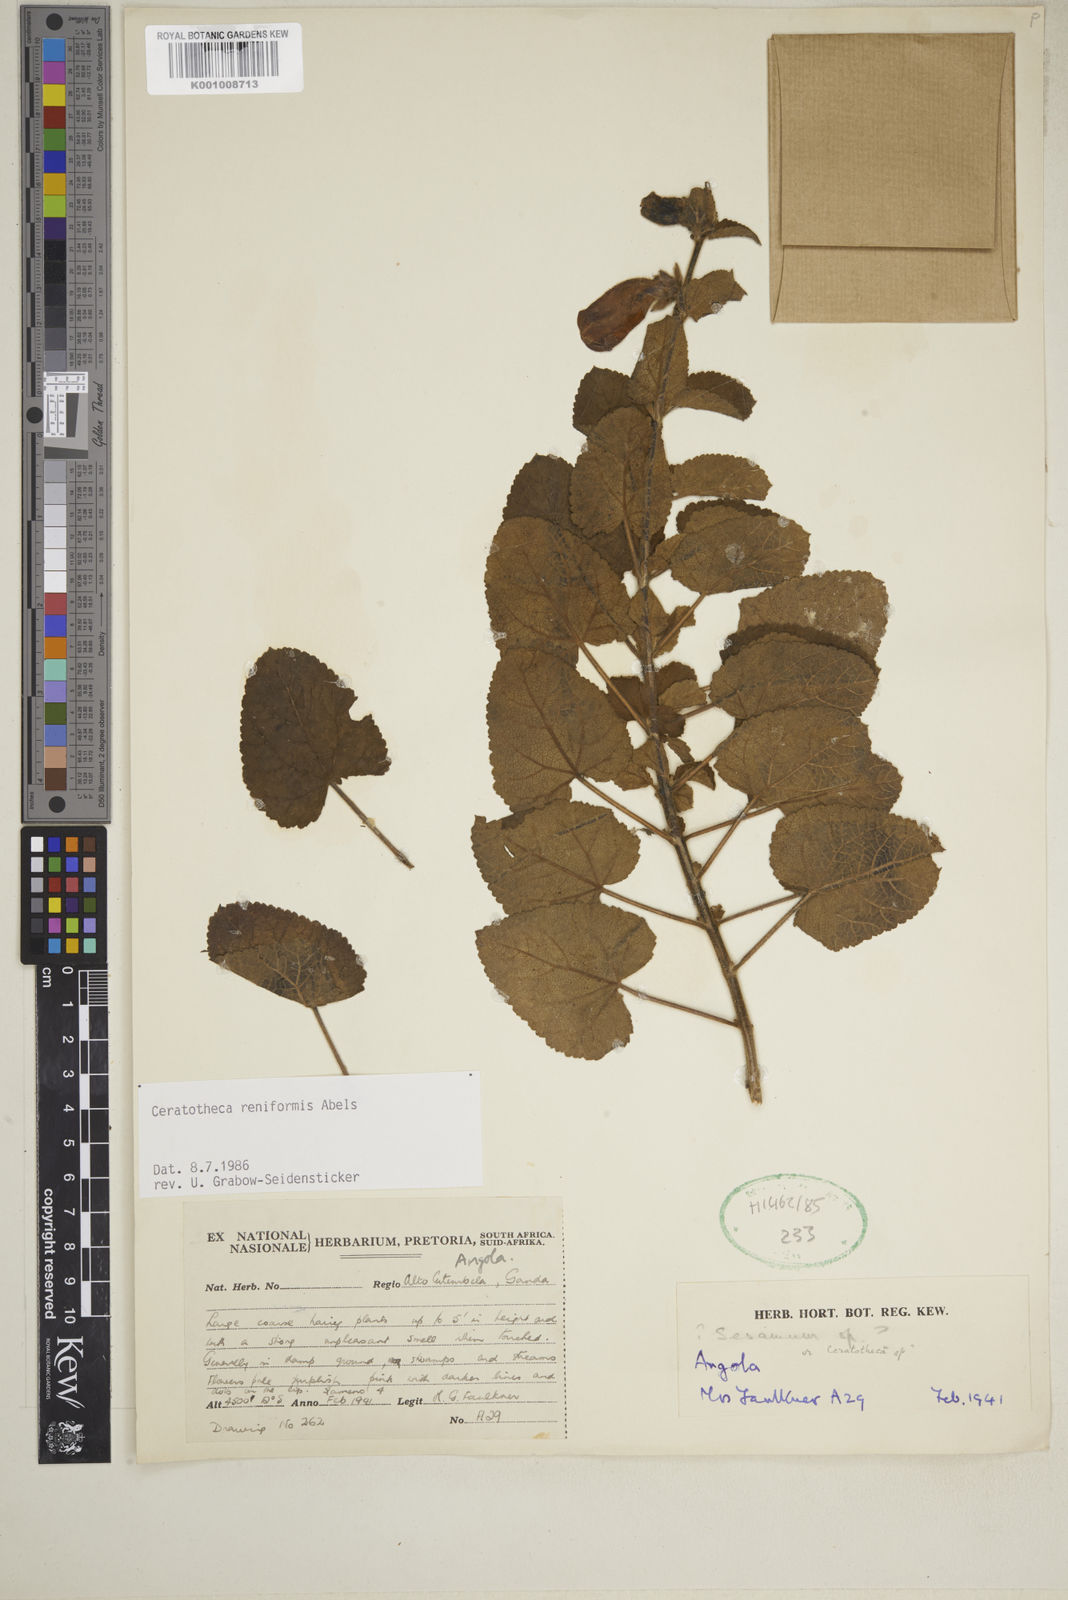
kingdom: Plantae
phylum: Tracheophyta
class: Magnoliopsida
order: Lamiales
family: Pedaliaceae
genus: Sesamum
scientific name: Sesamum reniforme
